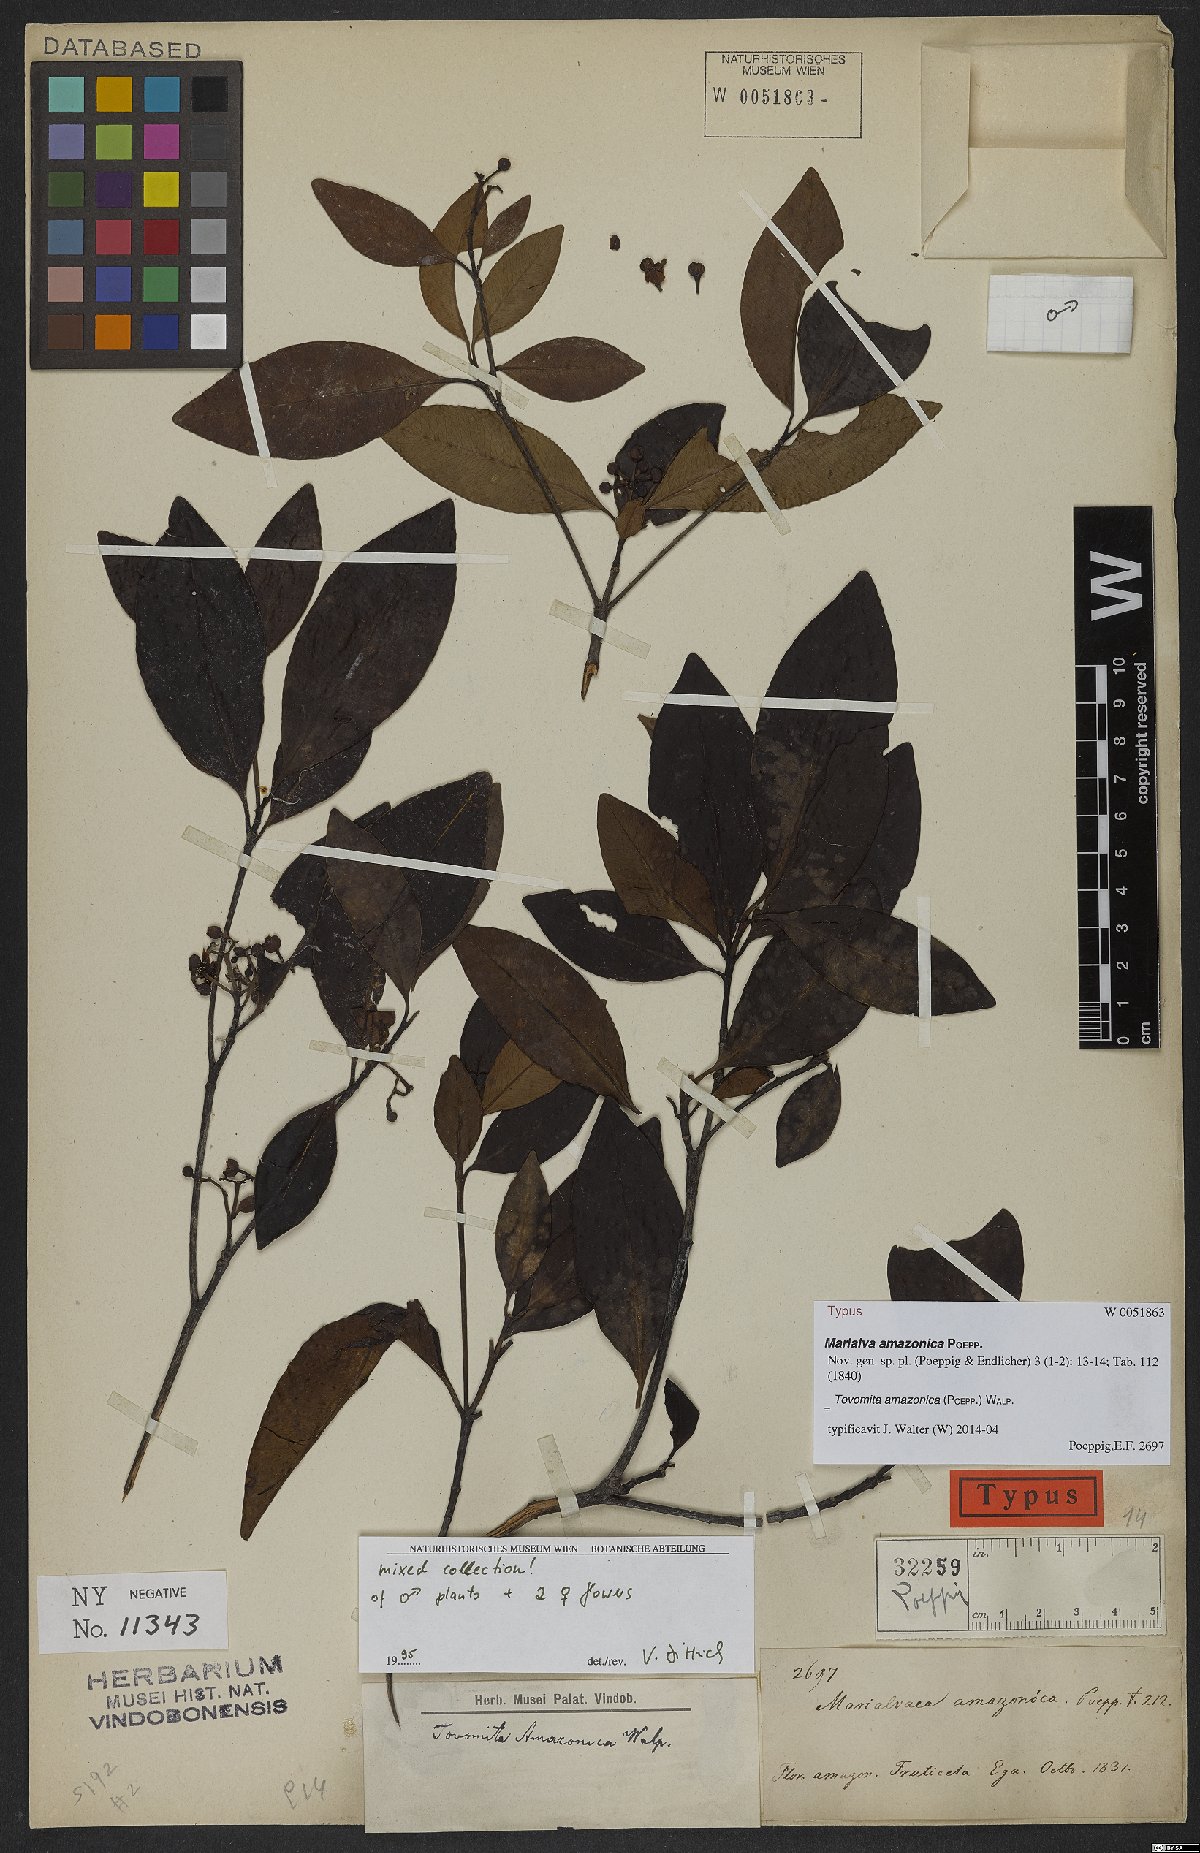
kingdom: Plantae
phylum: Tracheophyta
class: Magnoliopsida
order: Malpighiales
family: Clusiaceae
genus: Tovomita
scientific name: Tovomita amazonica
